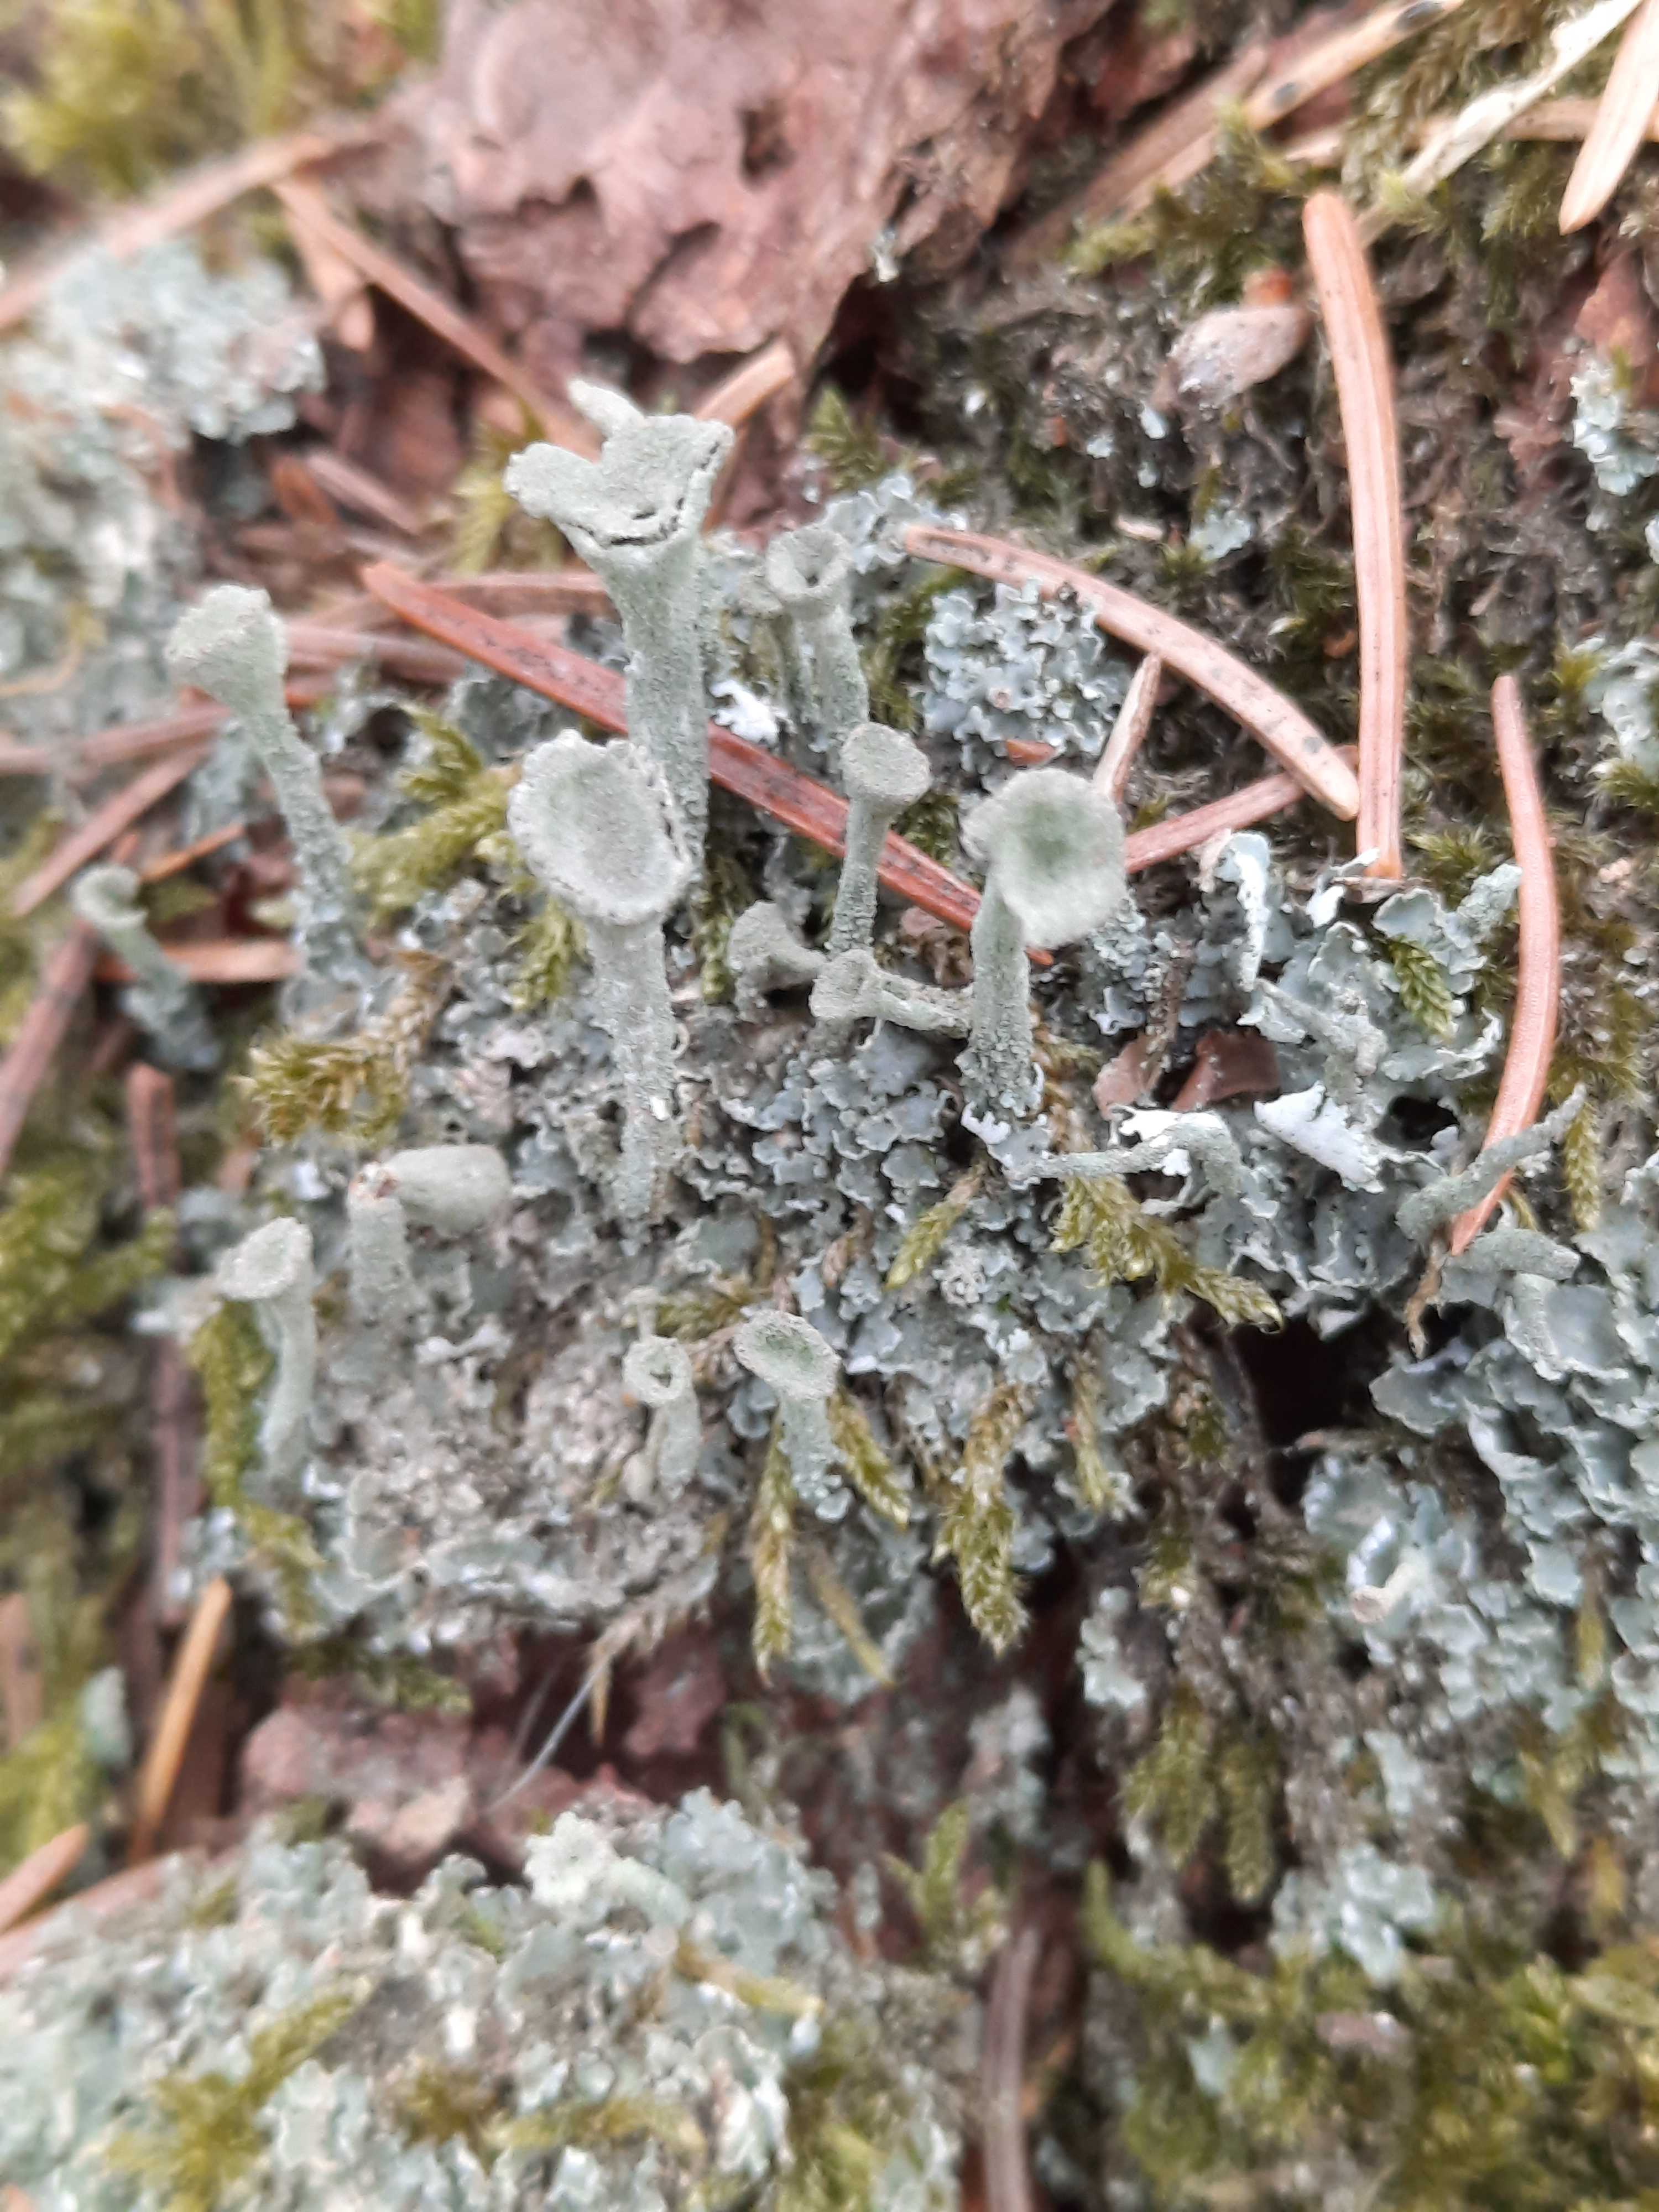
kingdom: Fungi
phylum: Ascomycota
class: Lecanoromycetes
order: Lecanorales
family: Cladoniaceae
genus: Cladonia
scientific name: Cladonia
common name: brungrøn bægerlav
